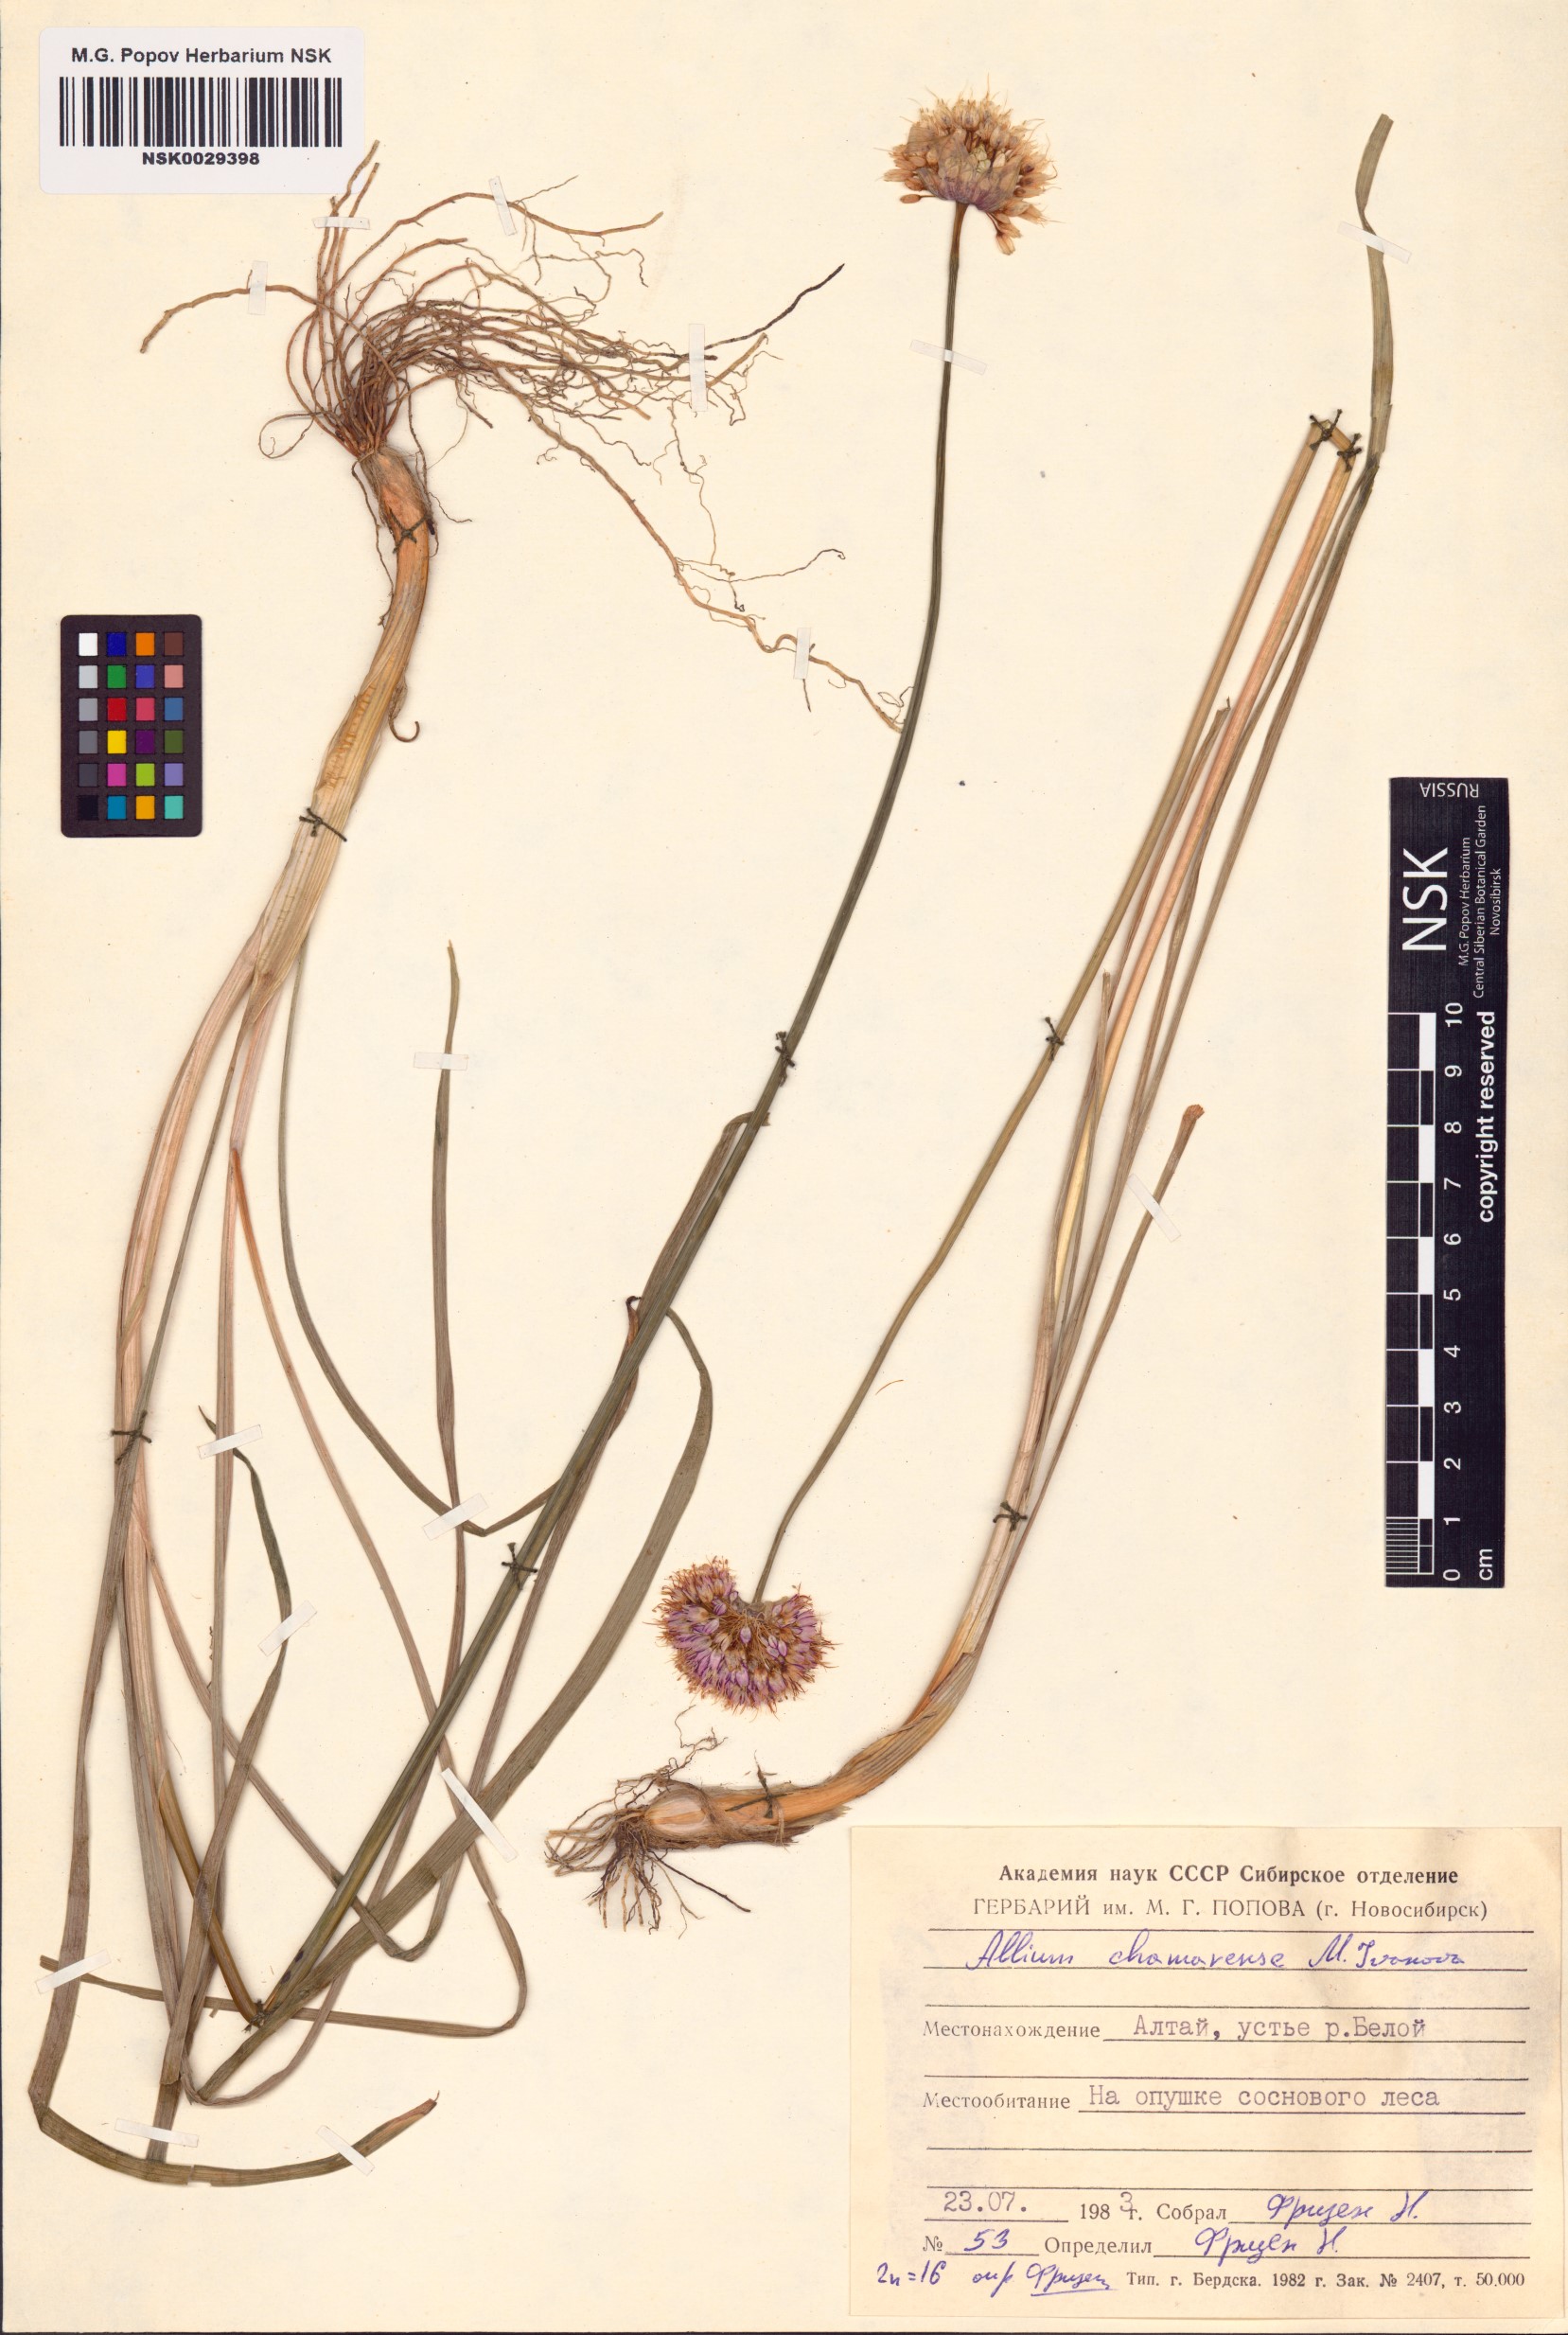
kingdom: Plantae
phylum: Tracheophyta
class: Liliopsida
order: Asparagales
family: Amaryllidaceae
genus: Allium
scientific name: Allium chamarense
